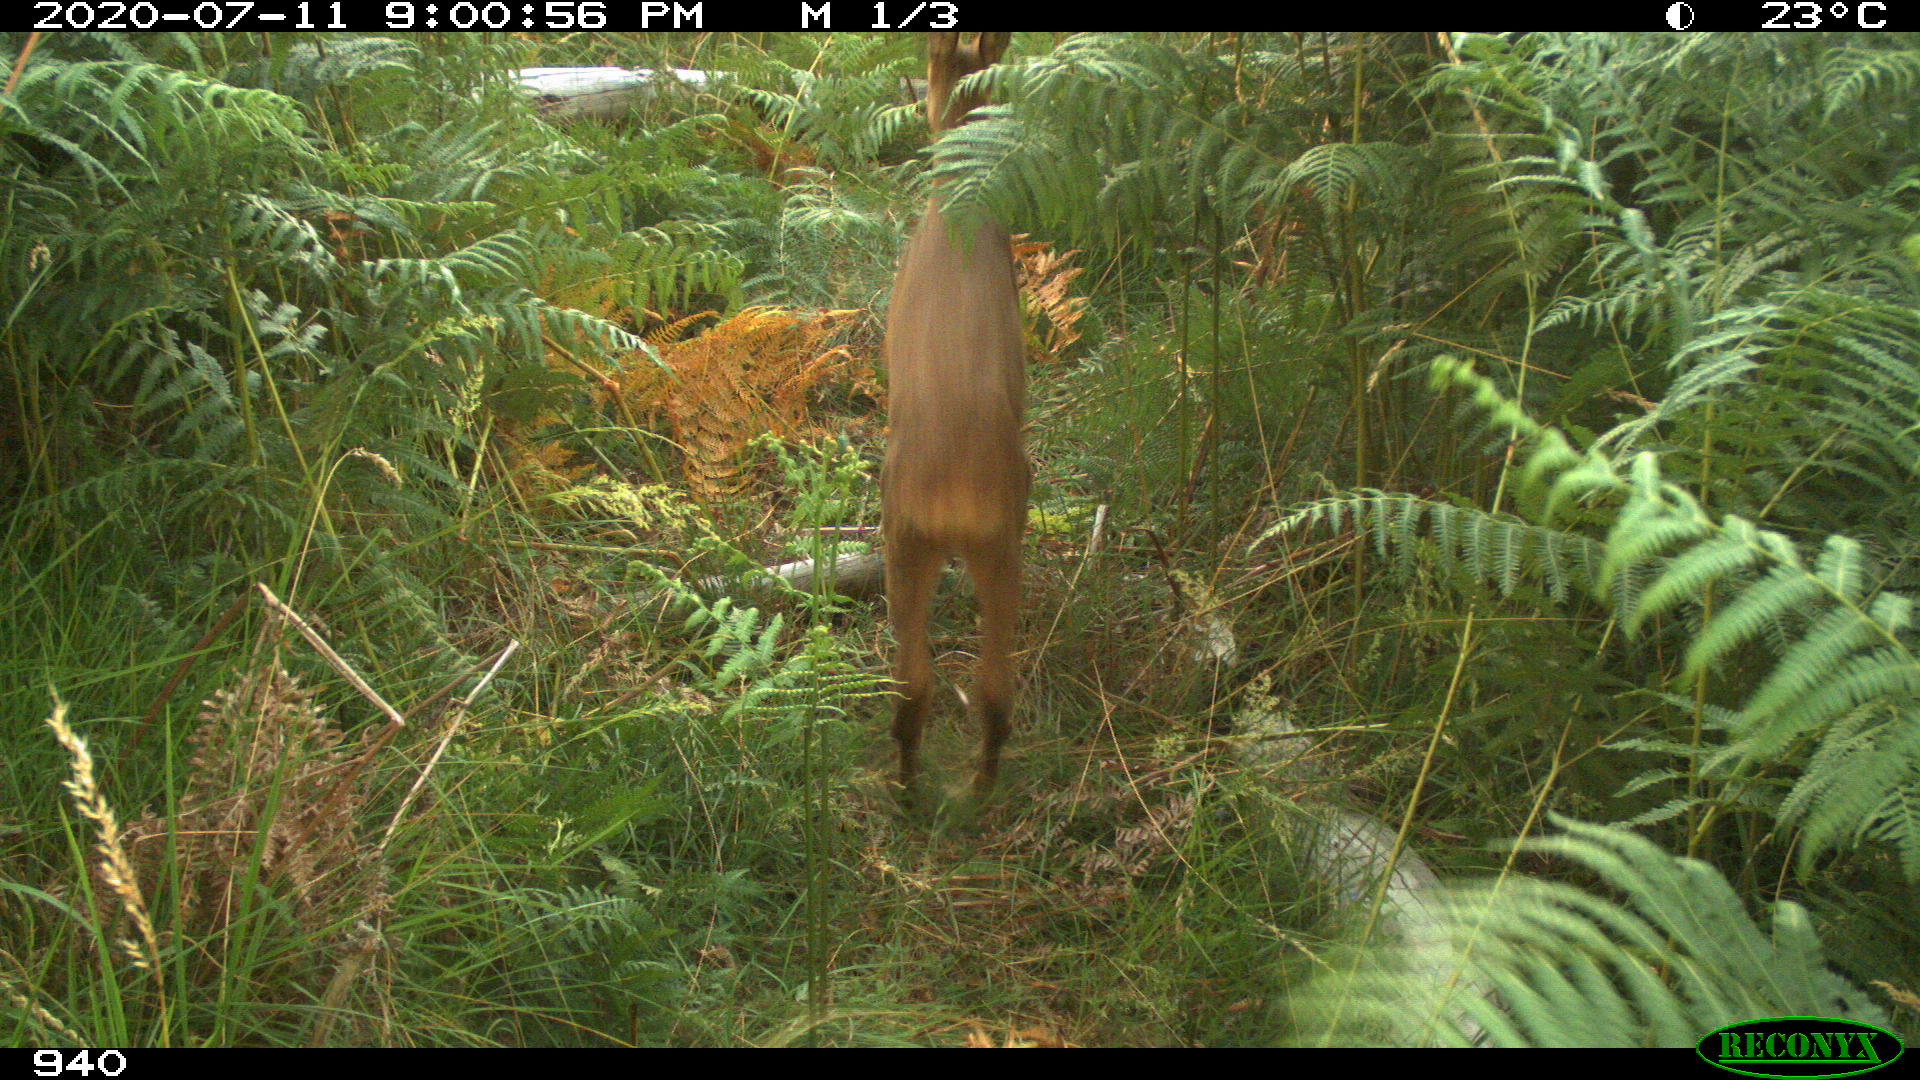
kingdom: Animalia
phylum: Chordata
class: Mammalia
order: Artiodactyla
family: Cervidae
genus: Capreolus
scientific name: Capreolus capreolus
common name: Western roe deer
